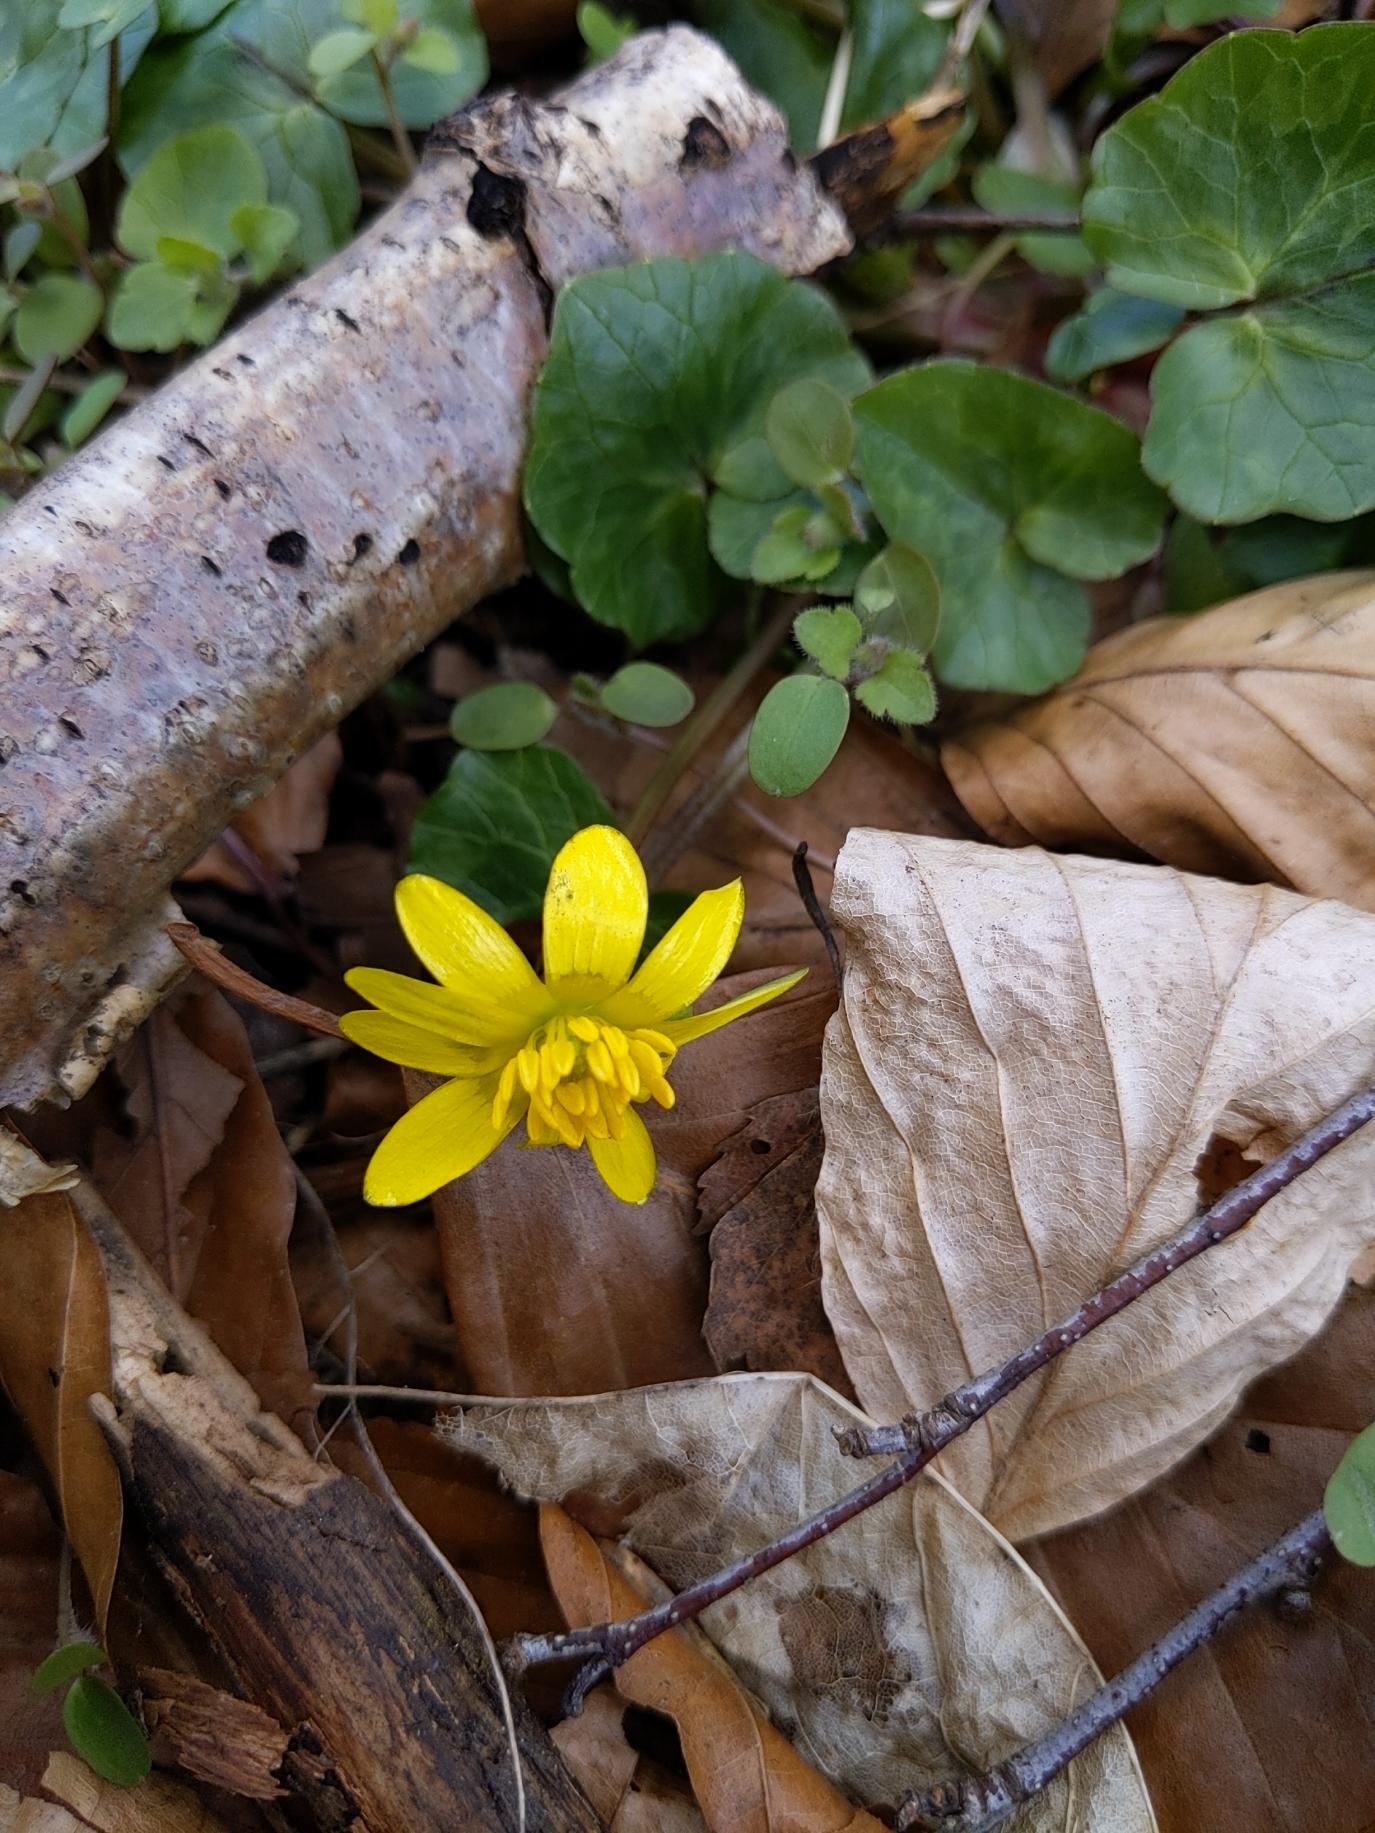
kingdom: Plantae
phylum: Tracheophyta
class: Magnoliopsida
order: Ranunculales
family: Ranunculaceae
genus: Ficaria
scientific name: Ficaria verna
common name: Vorterod
